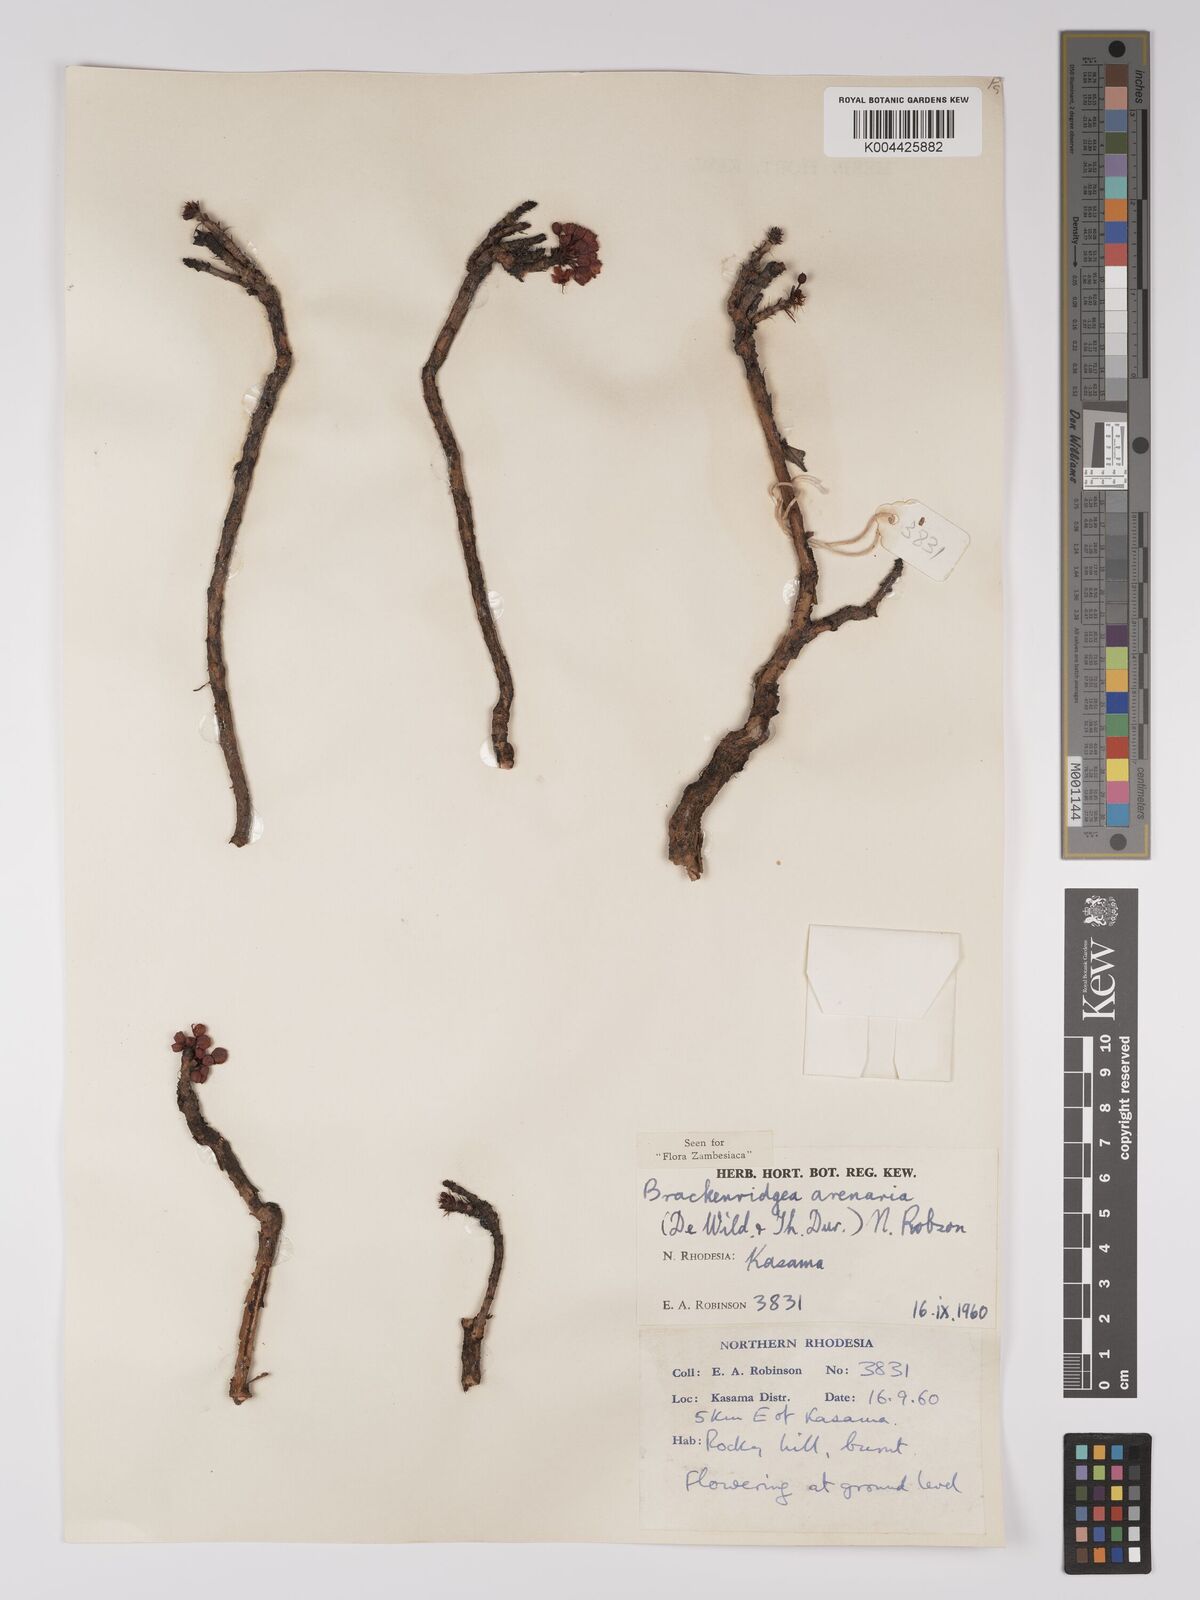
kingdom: Plantae
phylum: Tracheophyta
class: Magnoliopsida
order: Malpighiales
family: Ochnaceae
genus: Ochna
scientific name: Ochna arenaria
